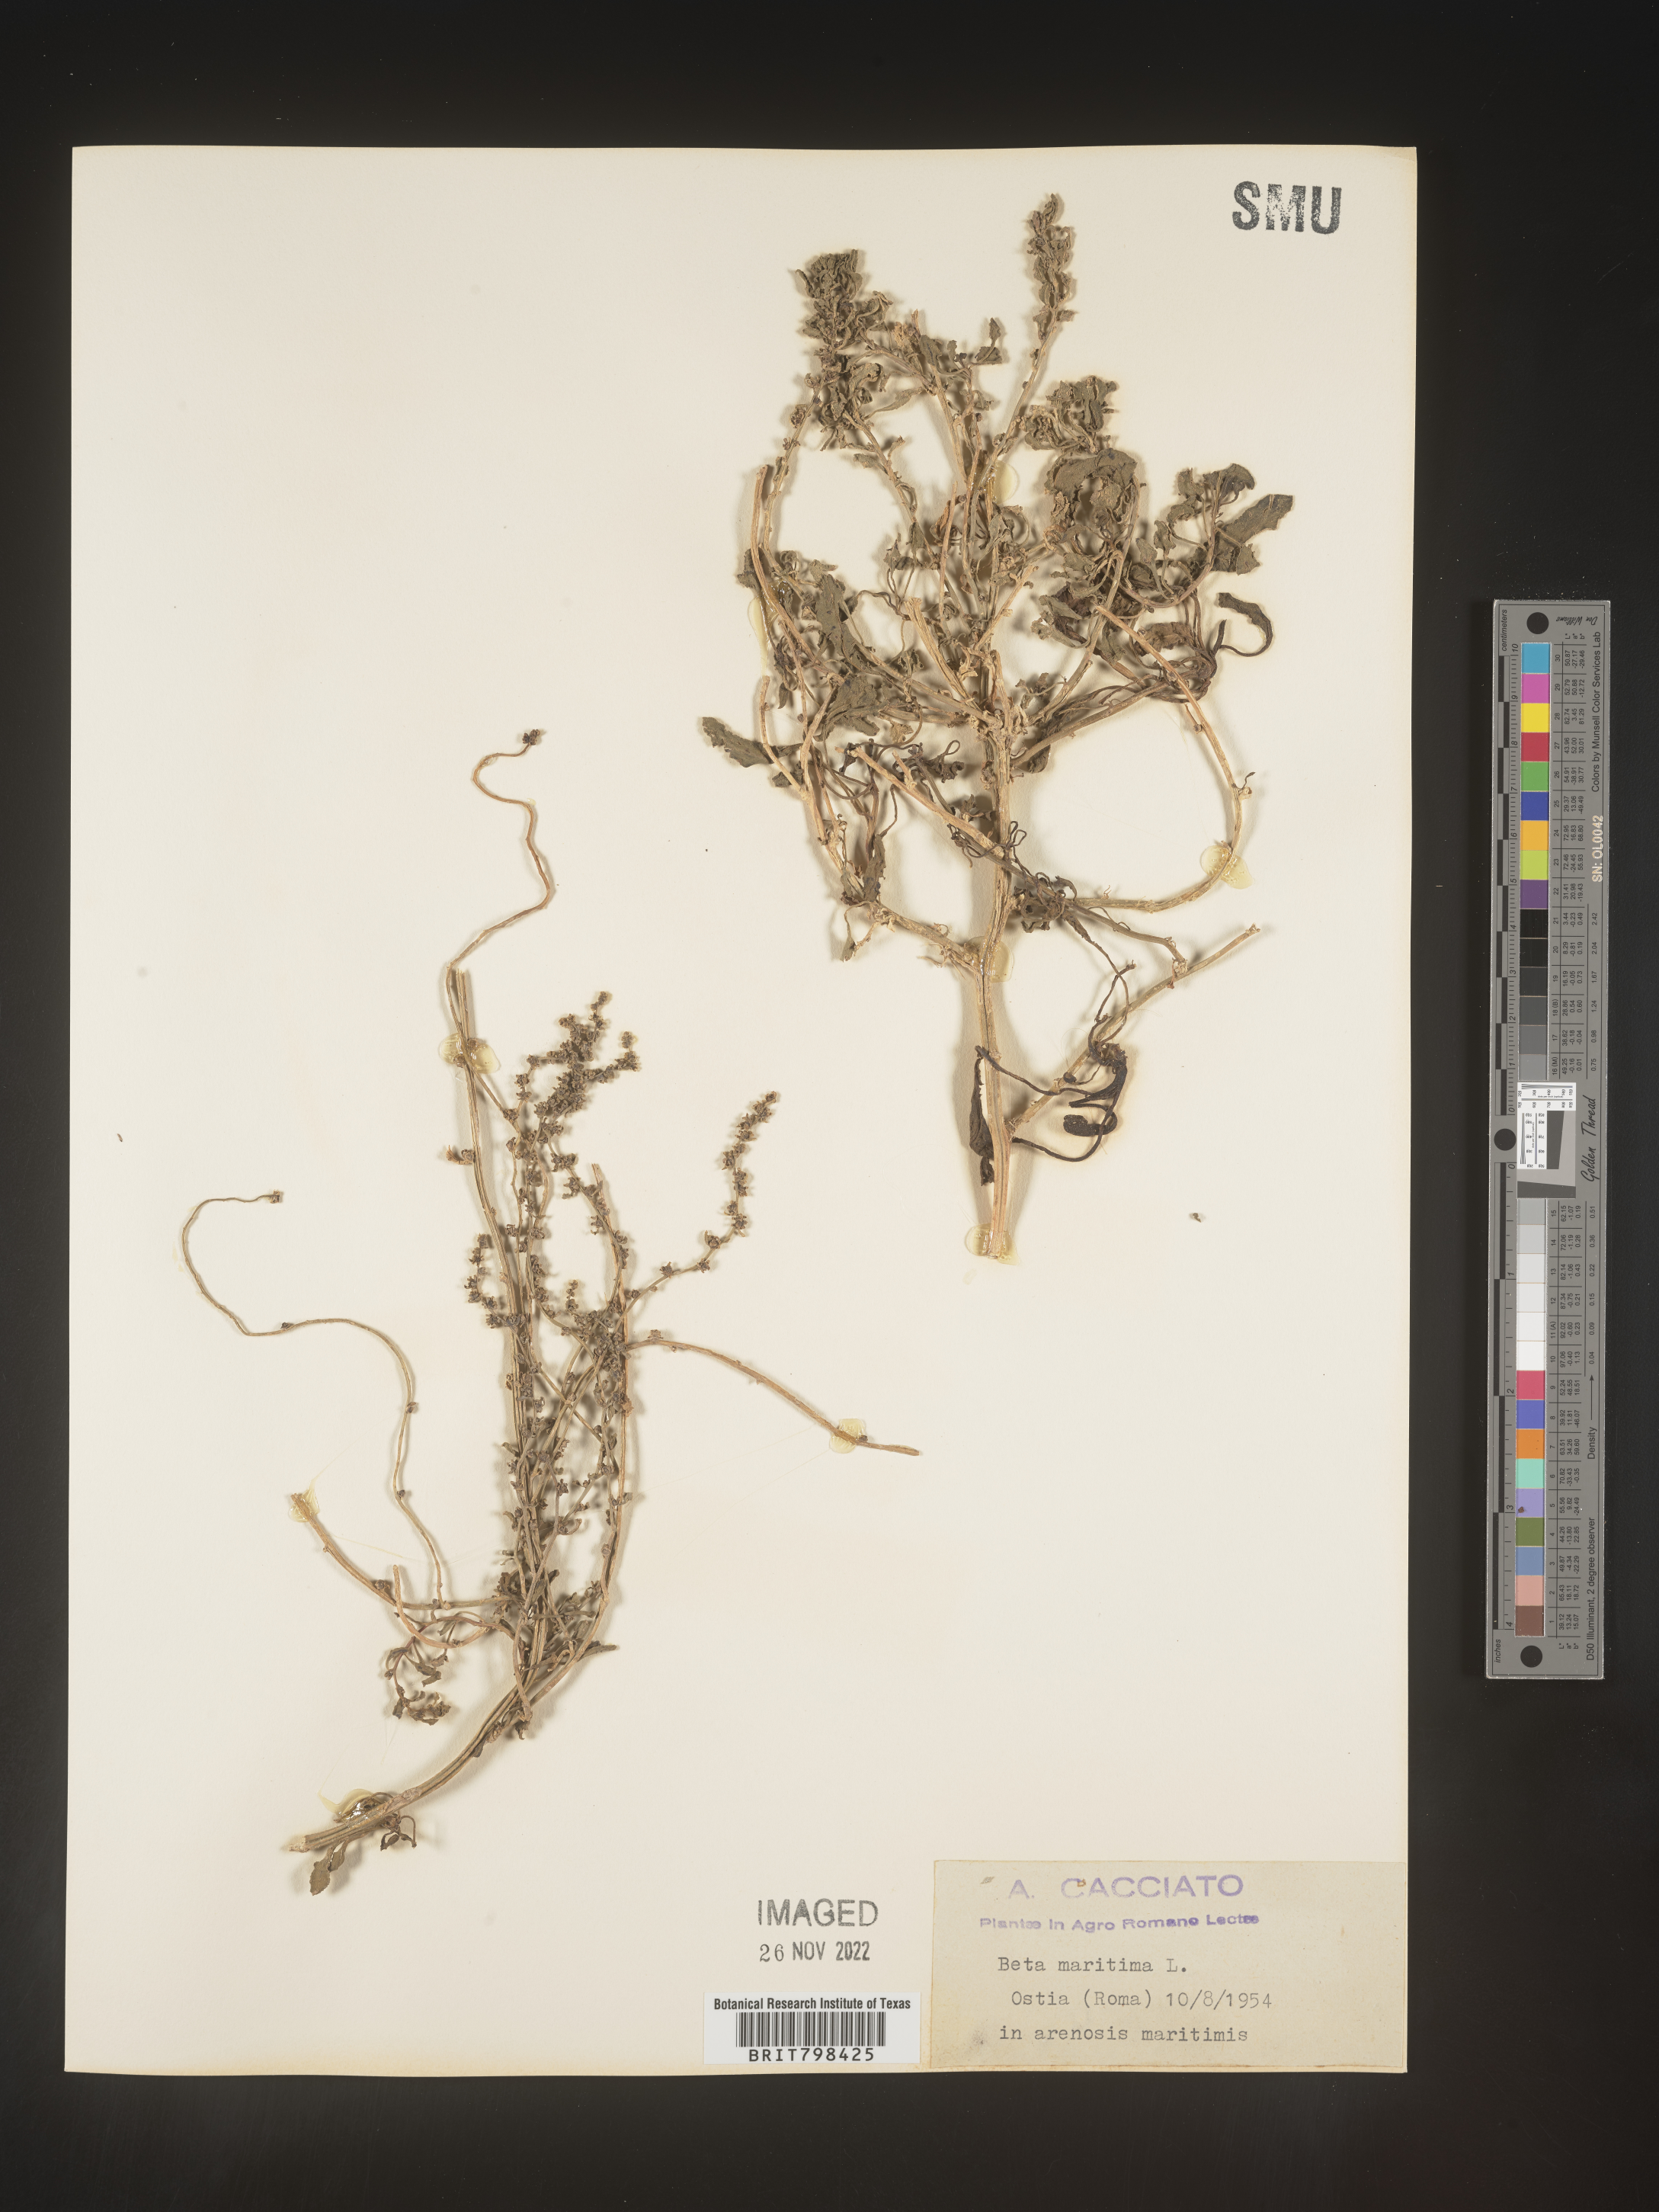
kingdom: Plantae
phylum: Tracheophyta
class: Magnoliopsida
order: Caryophyllales
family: Amaranthaceae
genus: Beta
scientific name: Beta
